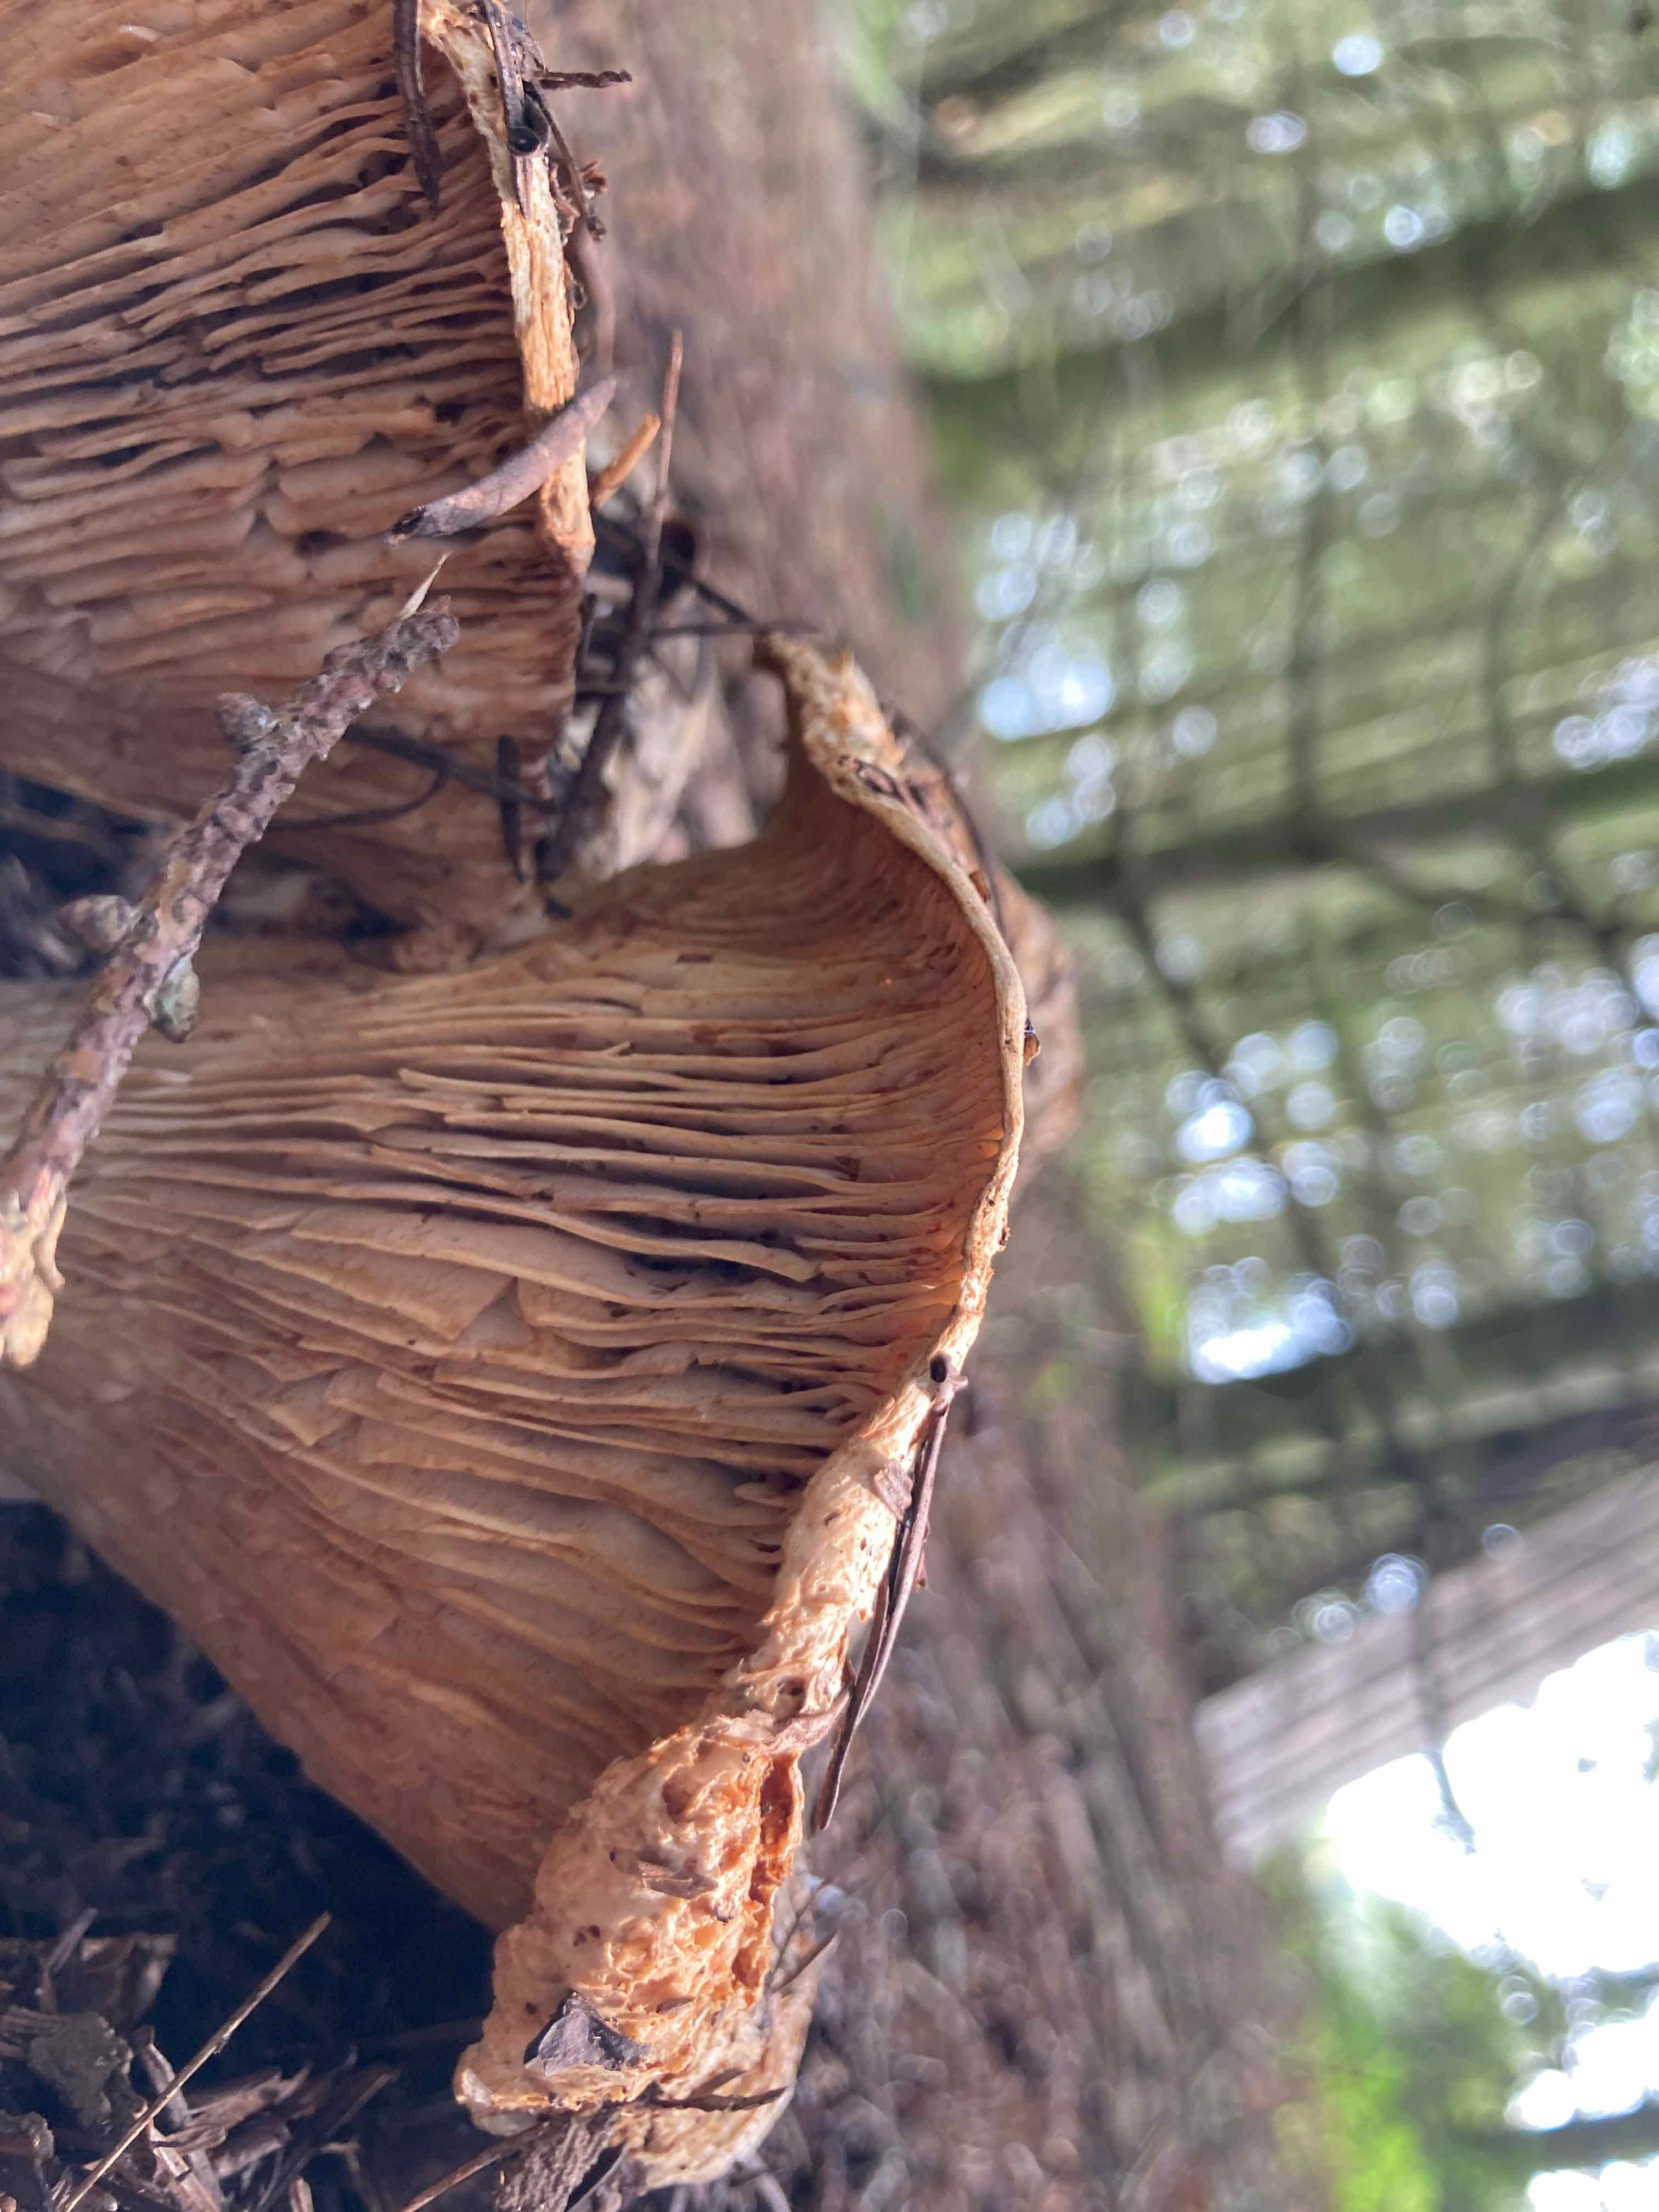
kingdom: Fungi
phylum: Basidiomycota
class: Agaricomycetes
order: Russulales
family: Russulaceae
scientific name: Russulaceae
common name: skørhatfamilien
